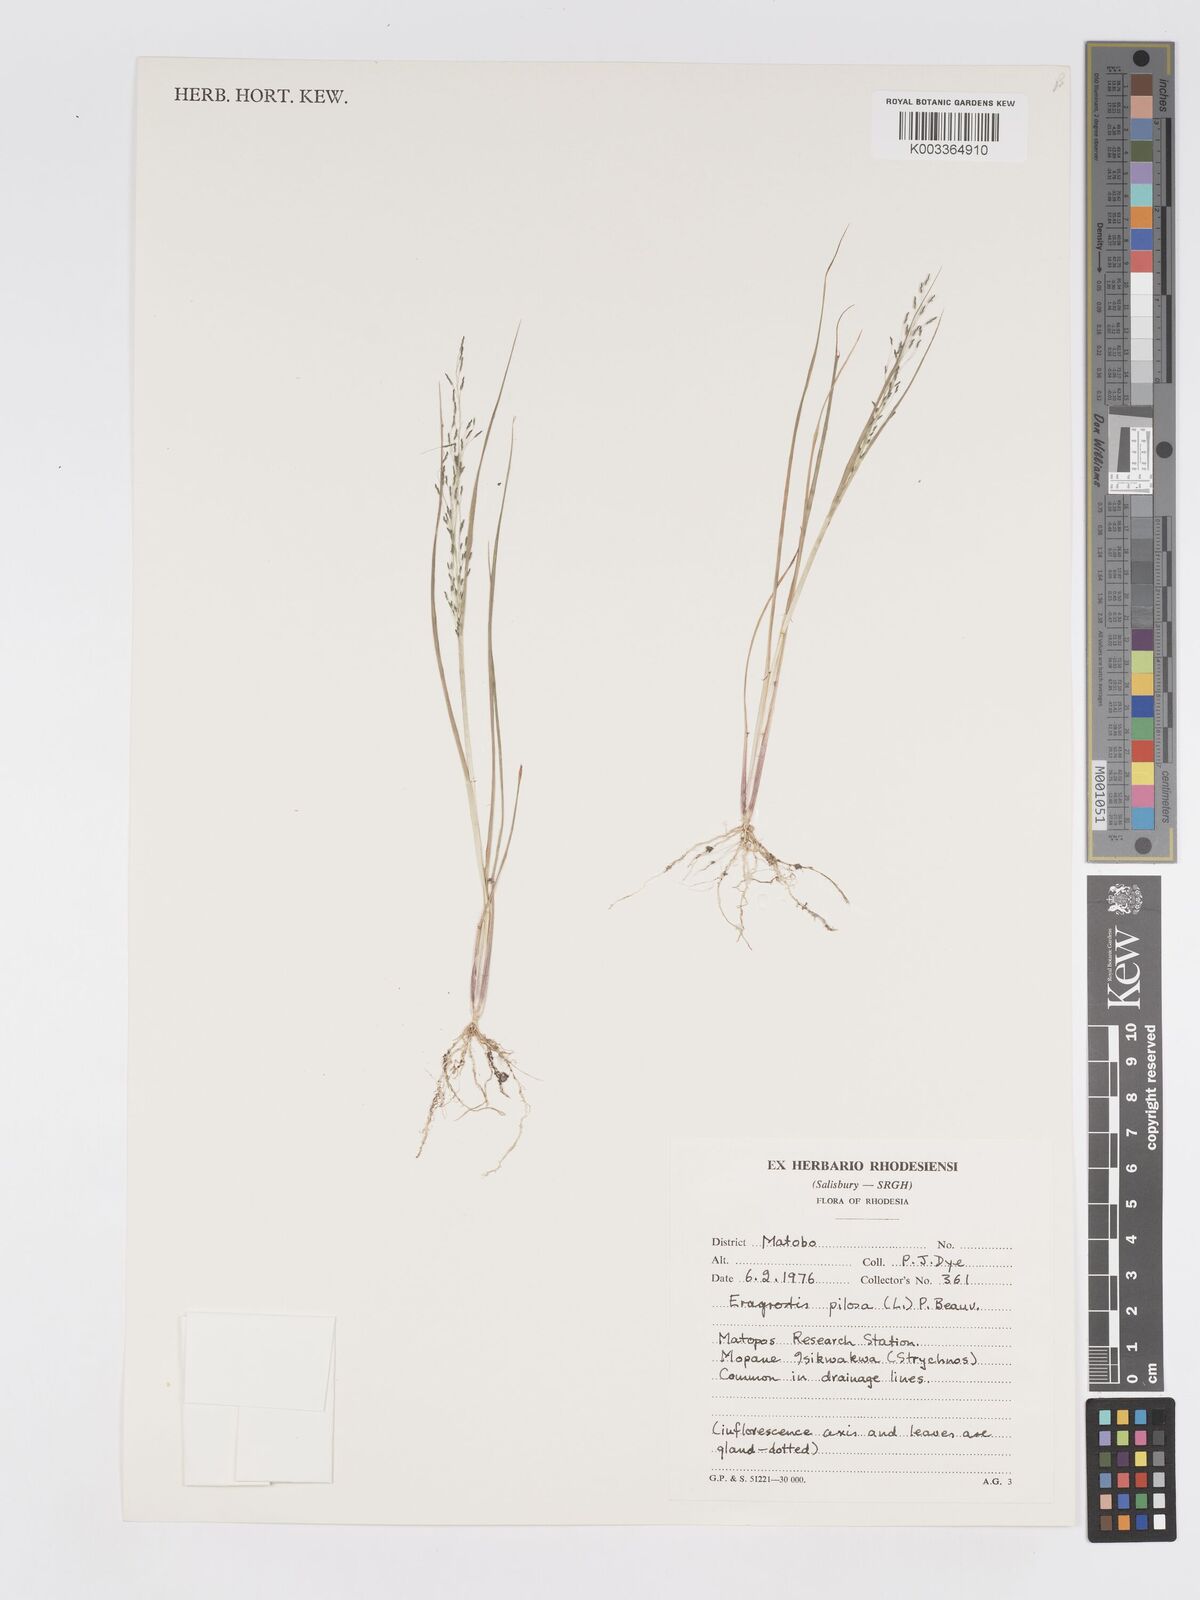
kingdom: Plantae
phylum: Tracheophyta
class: Liliopsida
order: Poales
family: Poaceae
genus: Eragrostis
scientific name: Eragrostis pilosa
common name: Indian lovegrass
